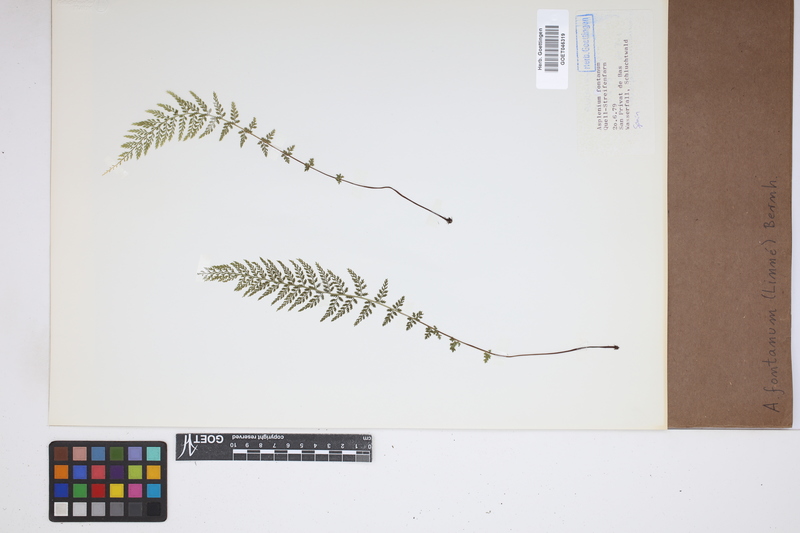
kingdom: Plantae
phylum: Tracheophyta
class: Polypodiopsida
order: Polypodiales
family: Aspleniaceae
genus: Asplenium
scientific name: Asplenium fontanum
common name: Fountain spleenwort
